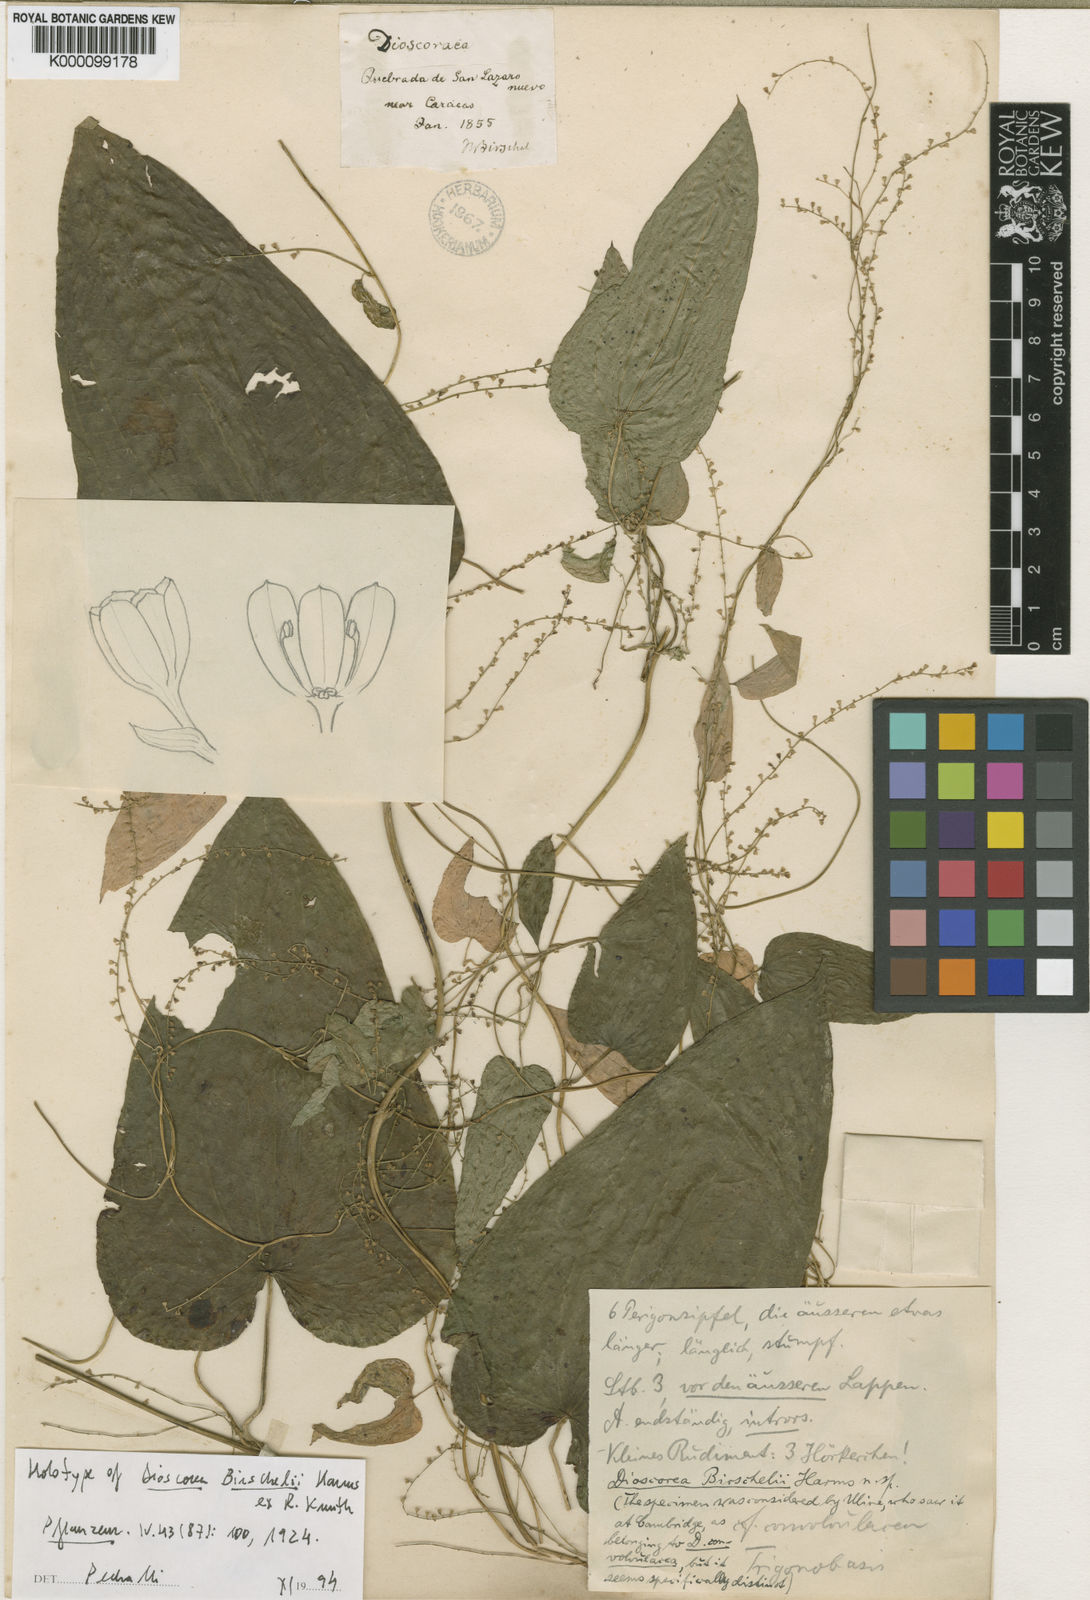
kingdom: Plantae
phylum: Tracheophyta
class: Liliopsida
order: Dioscoreales
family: Dioscoreaceae
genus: Dioscorea
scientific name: Dioscorea birschelii
